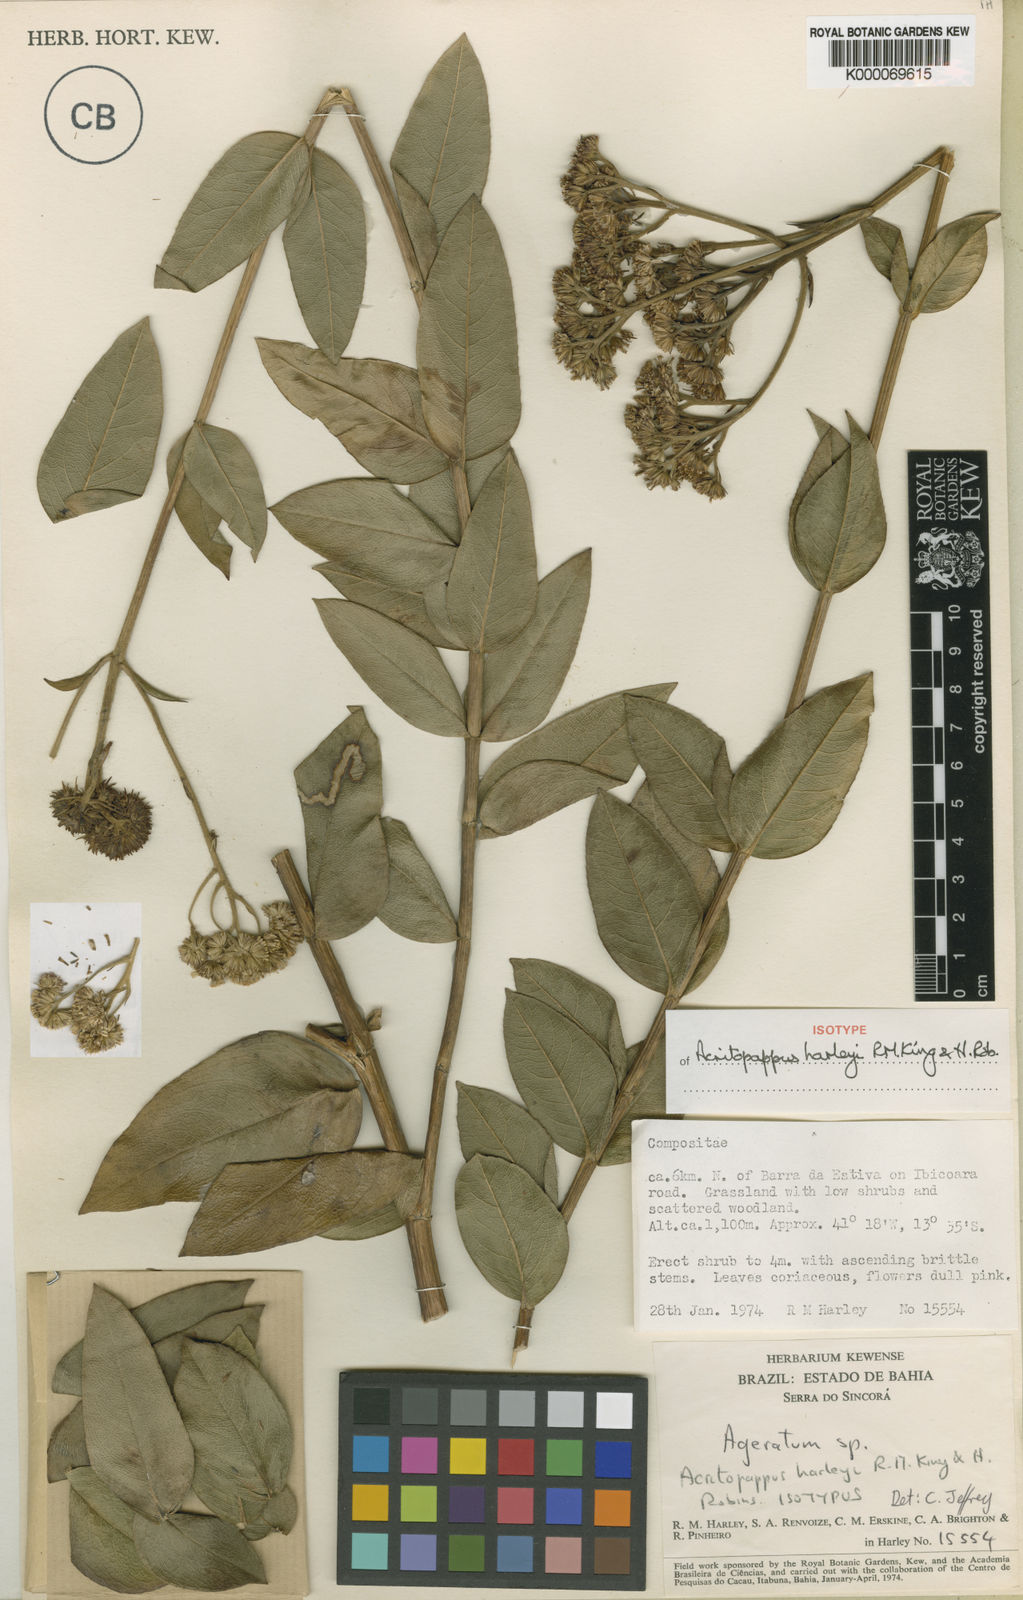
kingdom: Plantae
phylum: Tracheophyta
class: Magnoliopsida
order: Asterales
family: Asteraceae
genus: Acritopappus
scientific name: Acritopappus harleyi
